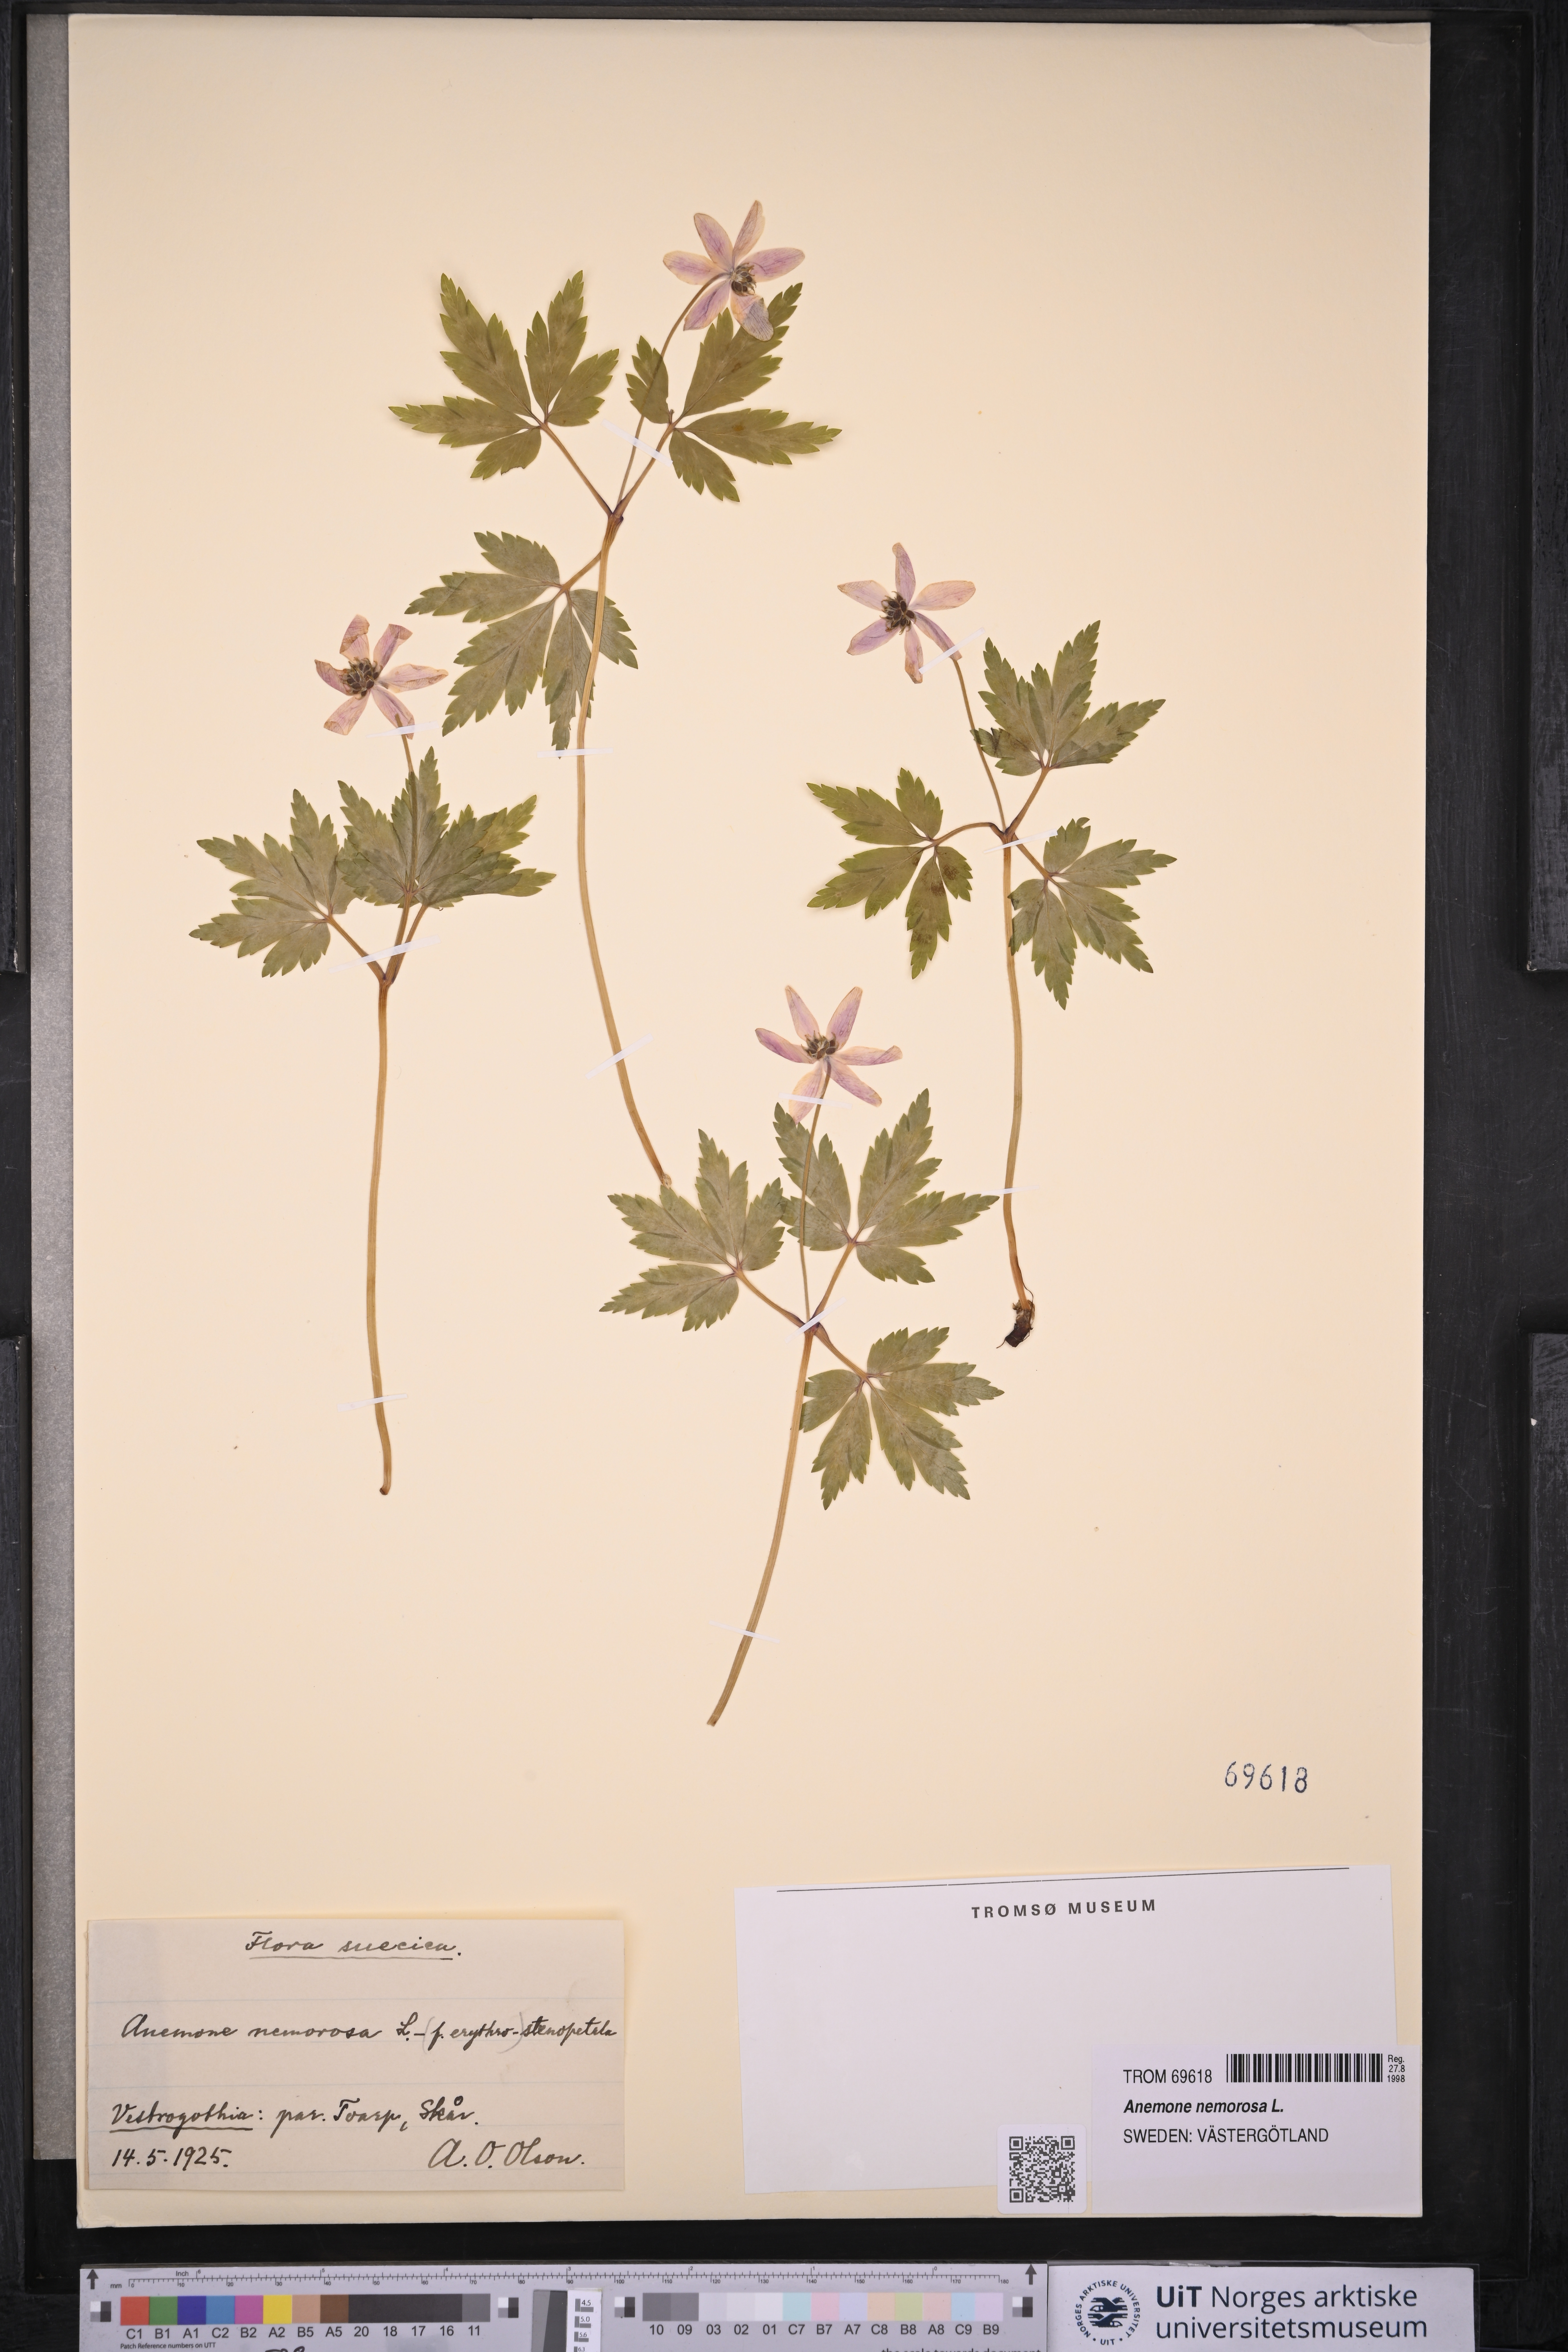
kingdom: Plantae
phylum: Tracheophyta
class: Magnoliopsida
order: Ranunculales
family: Ranunculaceae
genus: Anemone
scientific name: Anemone nemorosa
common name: Wood anemone
